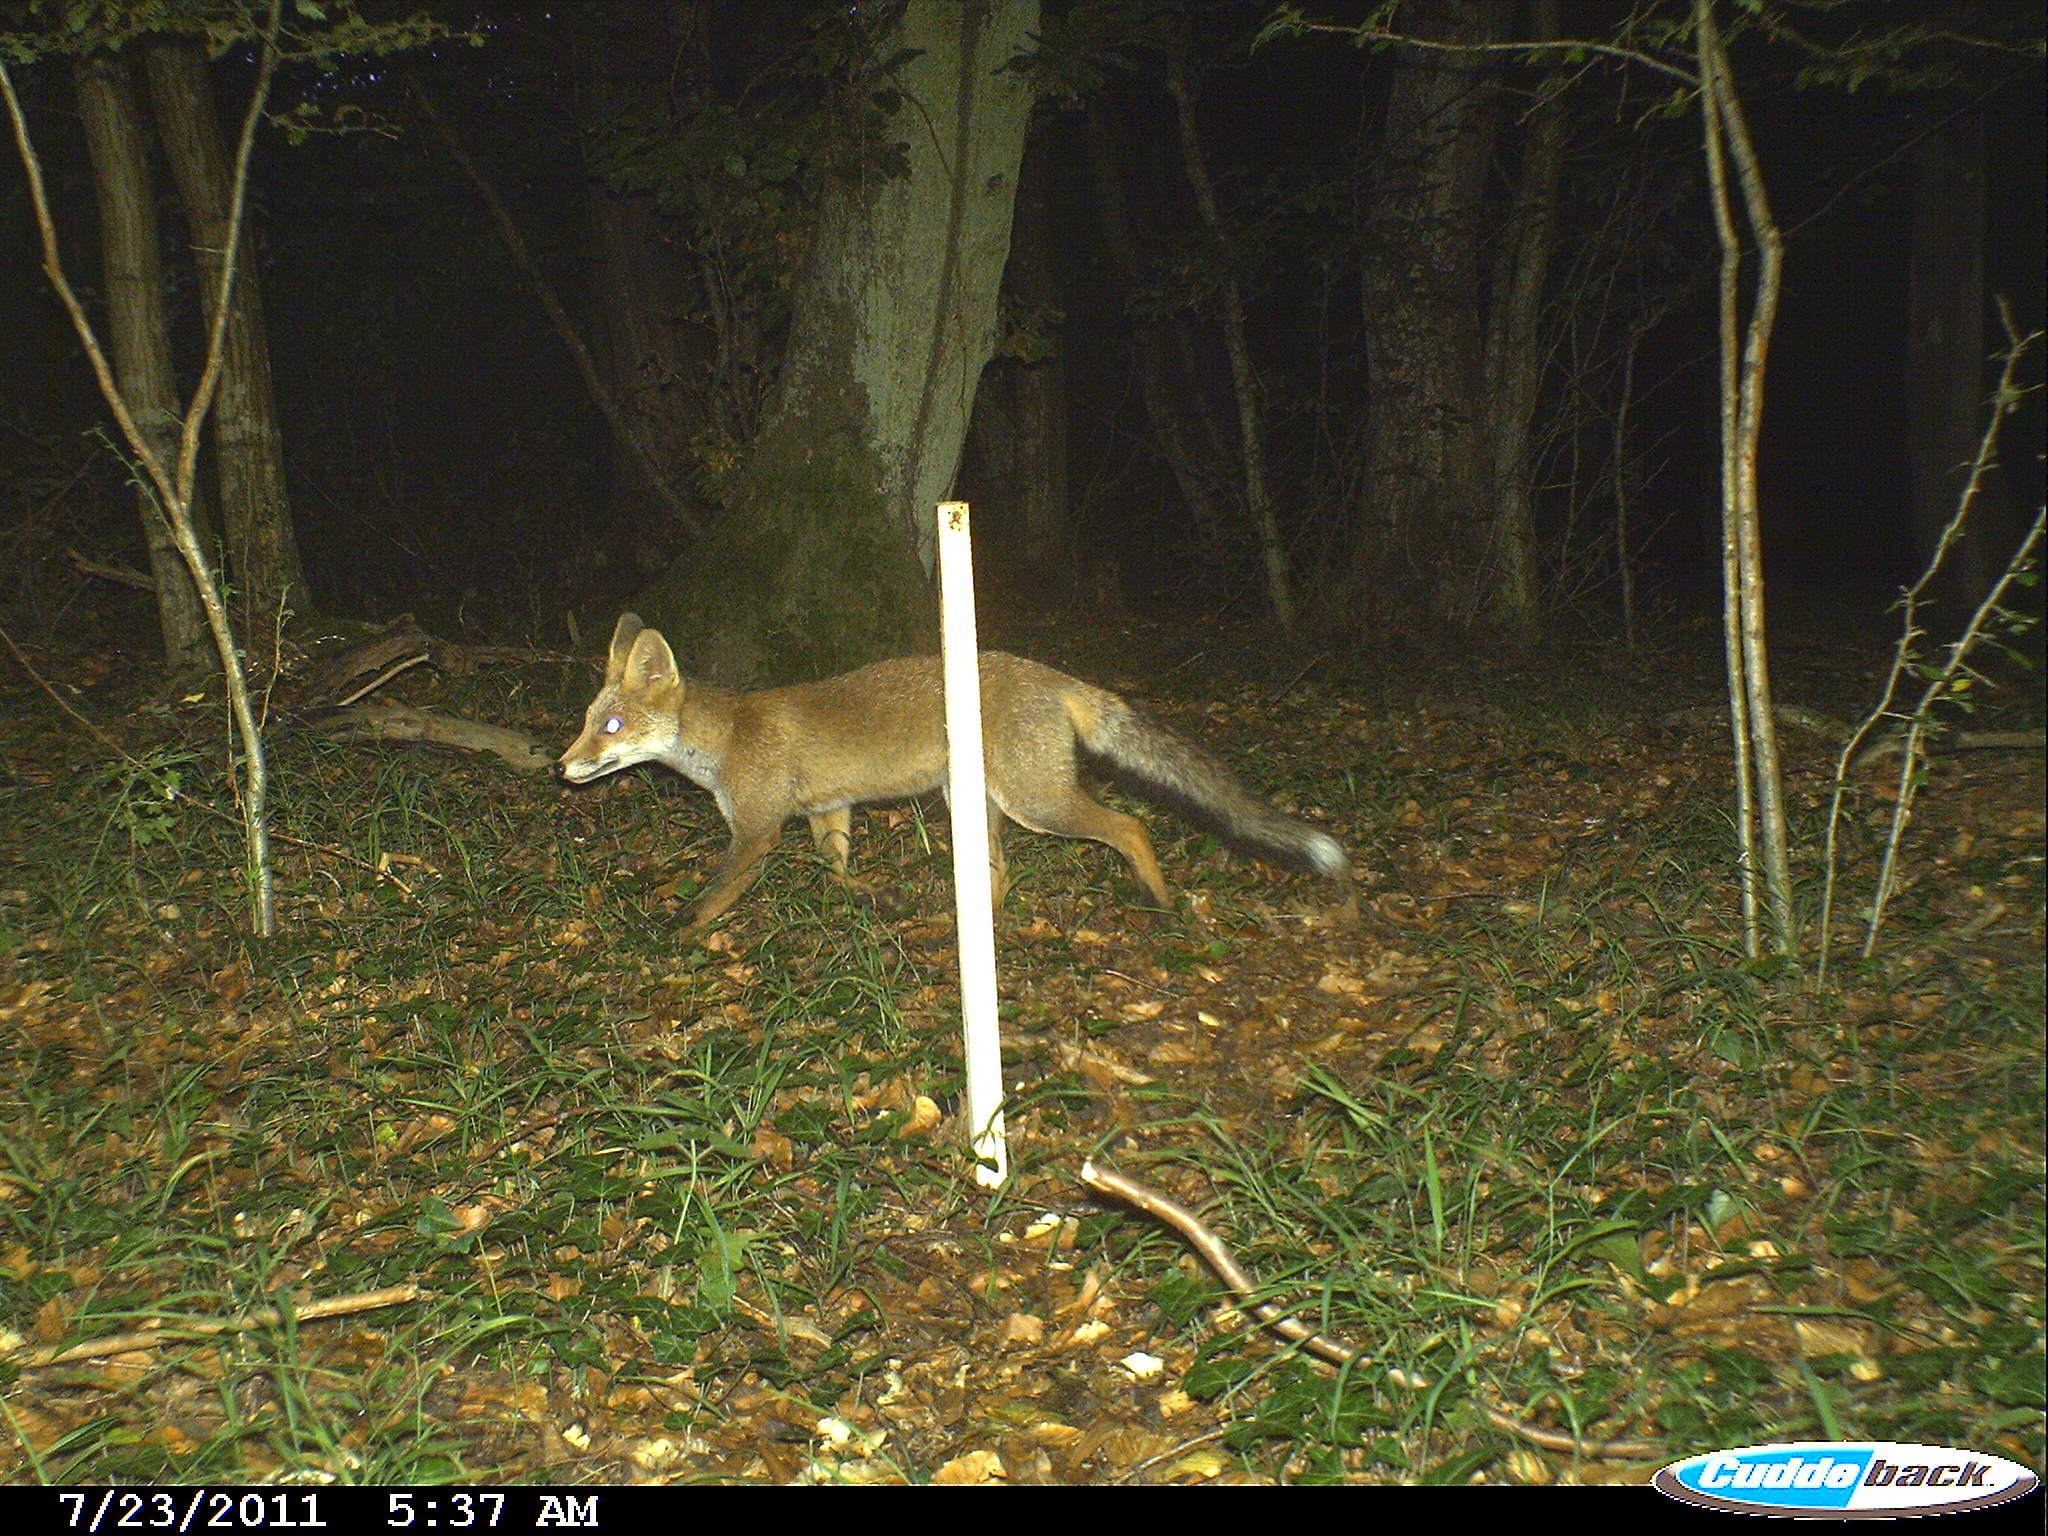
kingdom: Animalia
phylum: Chordata
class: Mammalia
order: Carnivora
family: Canidae
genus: Vulpes
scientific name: Vulpes vulpes
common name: Red fox
